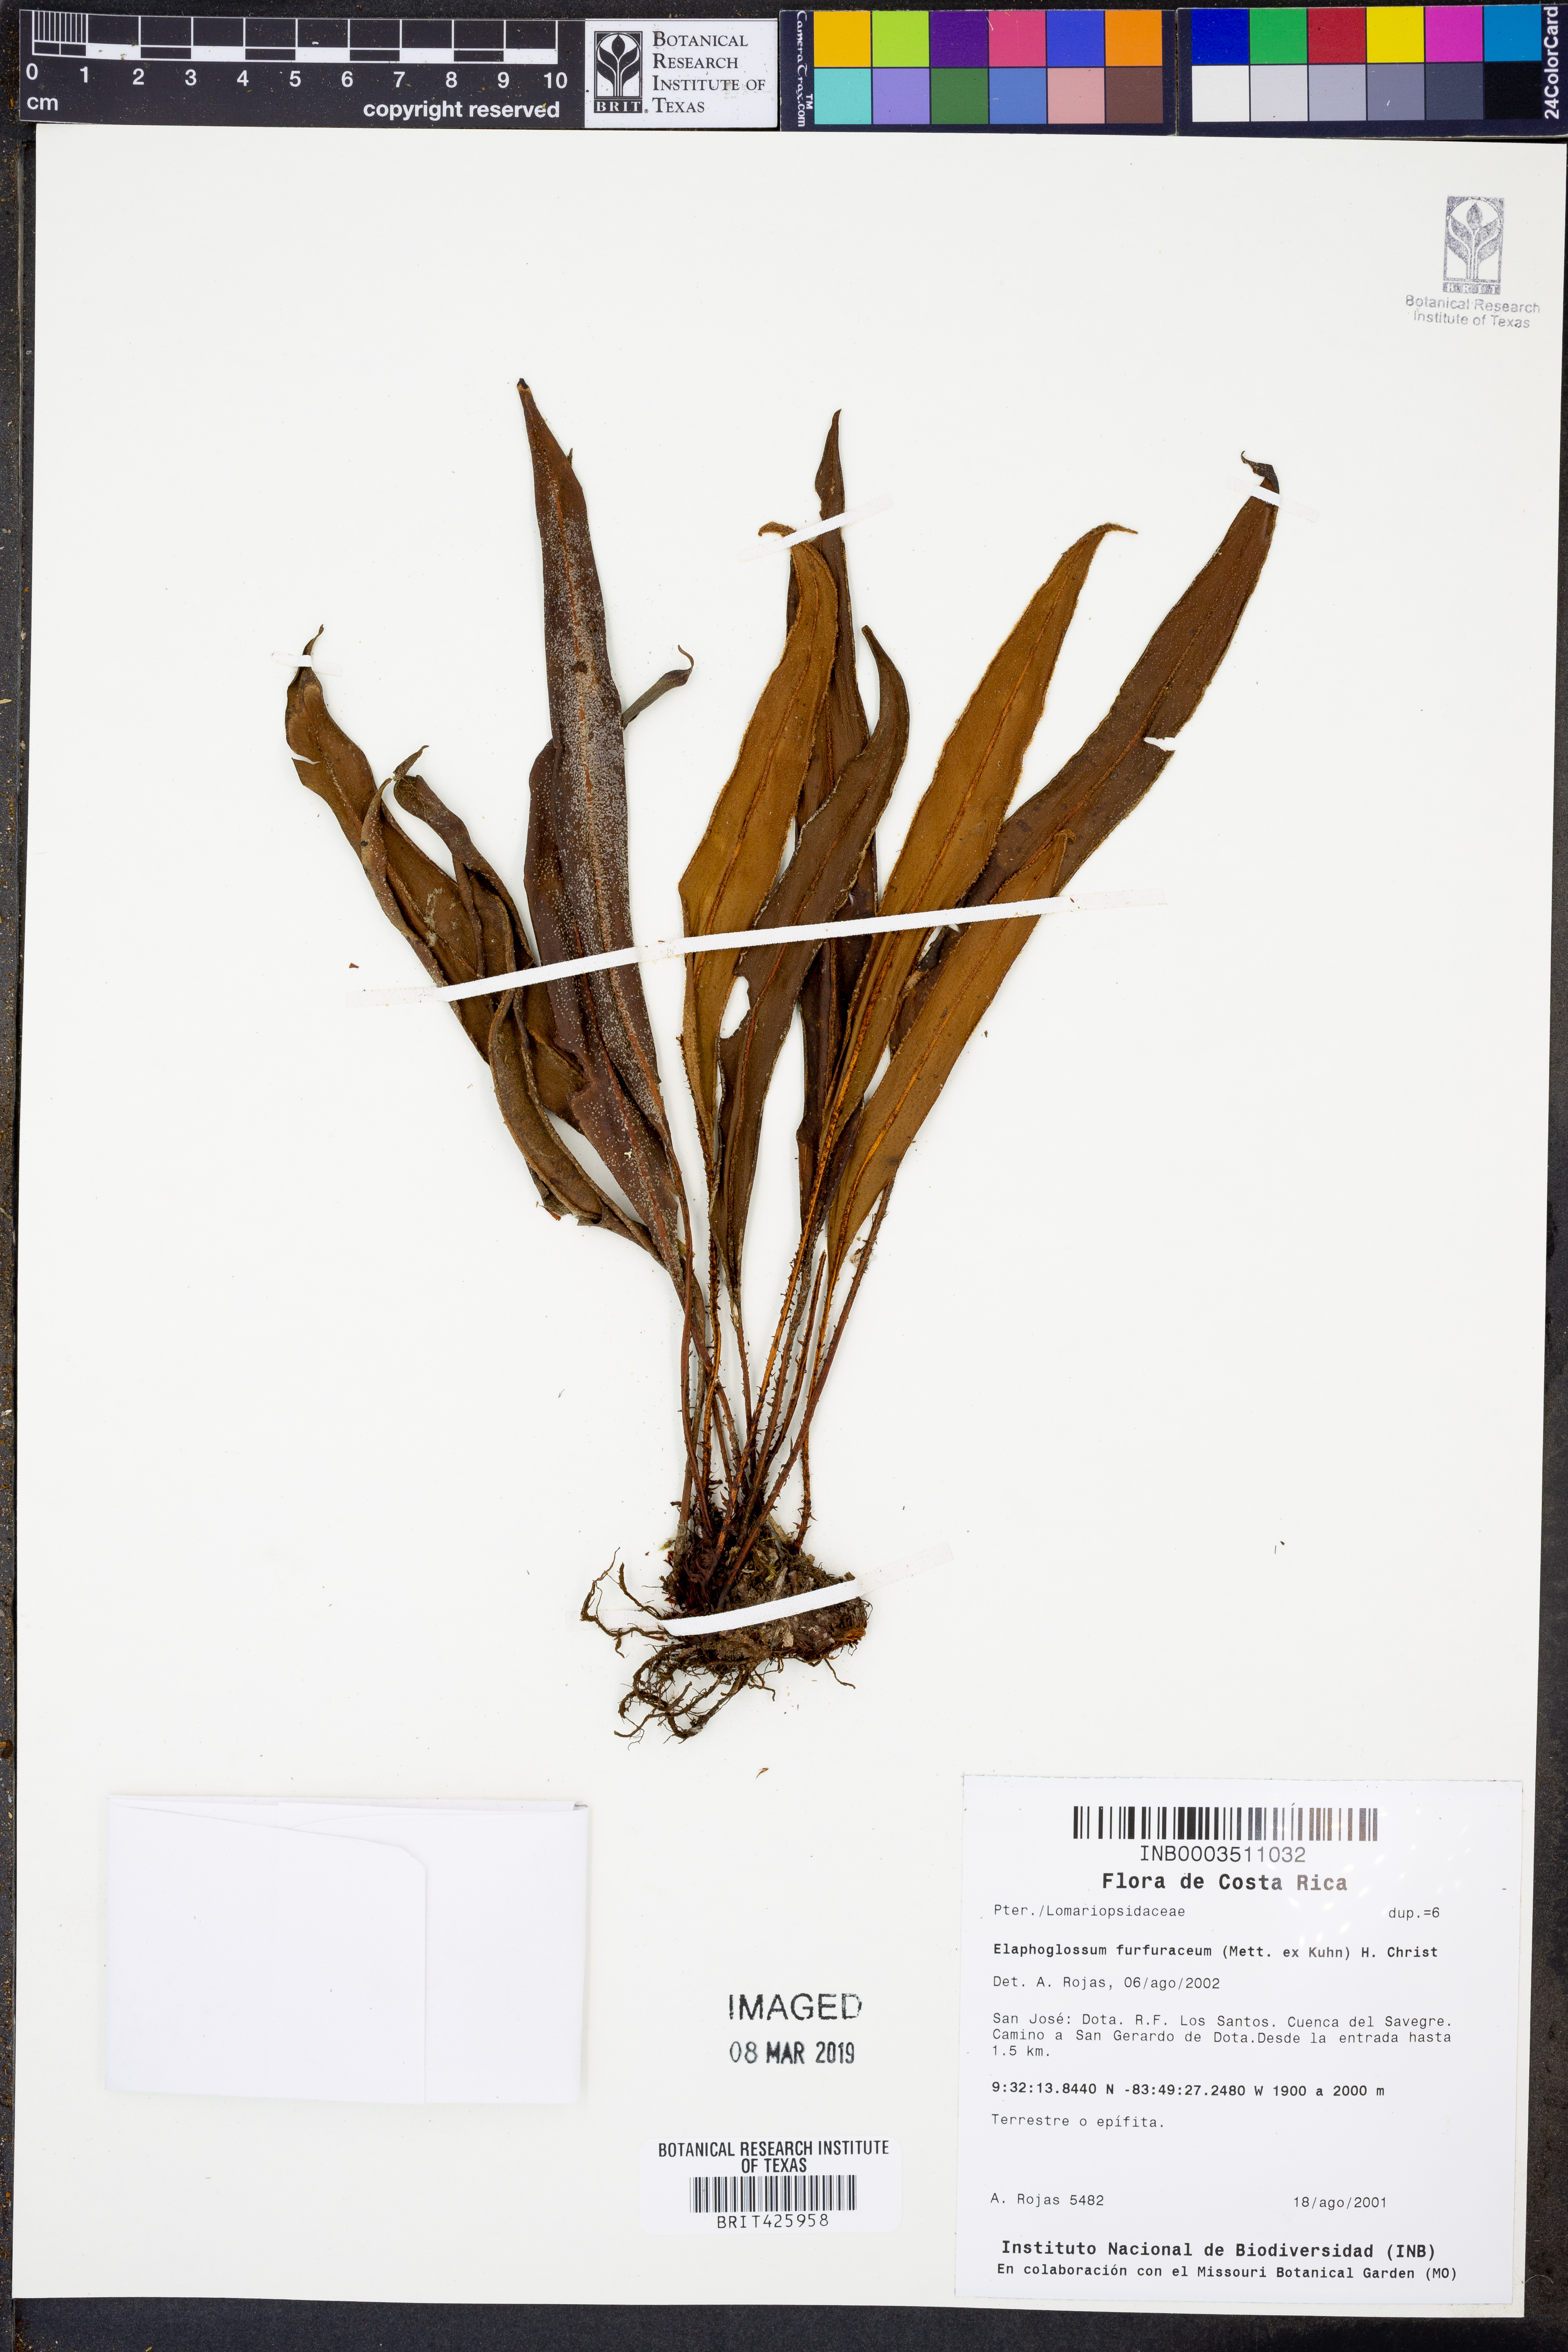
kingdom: Plantae
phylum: Tracheophyta
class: Polypodiopsida
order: Polypodiales
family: Dryopteridaceae
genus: Elaphoglossum
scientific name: Elaphoglossum furfuraceum
